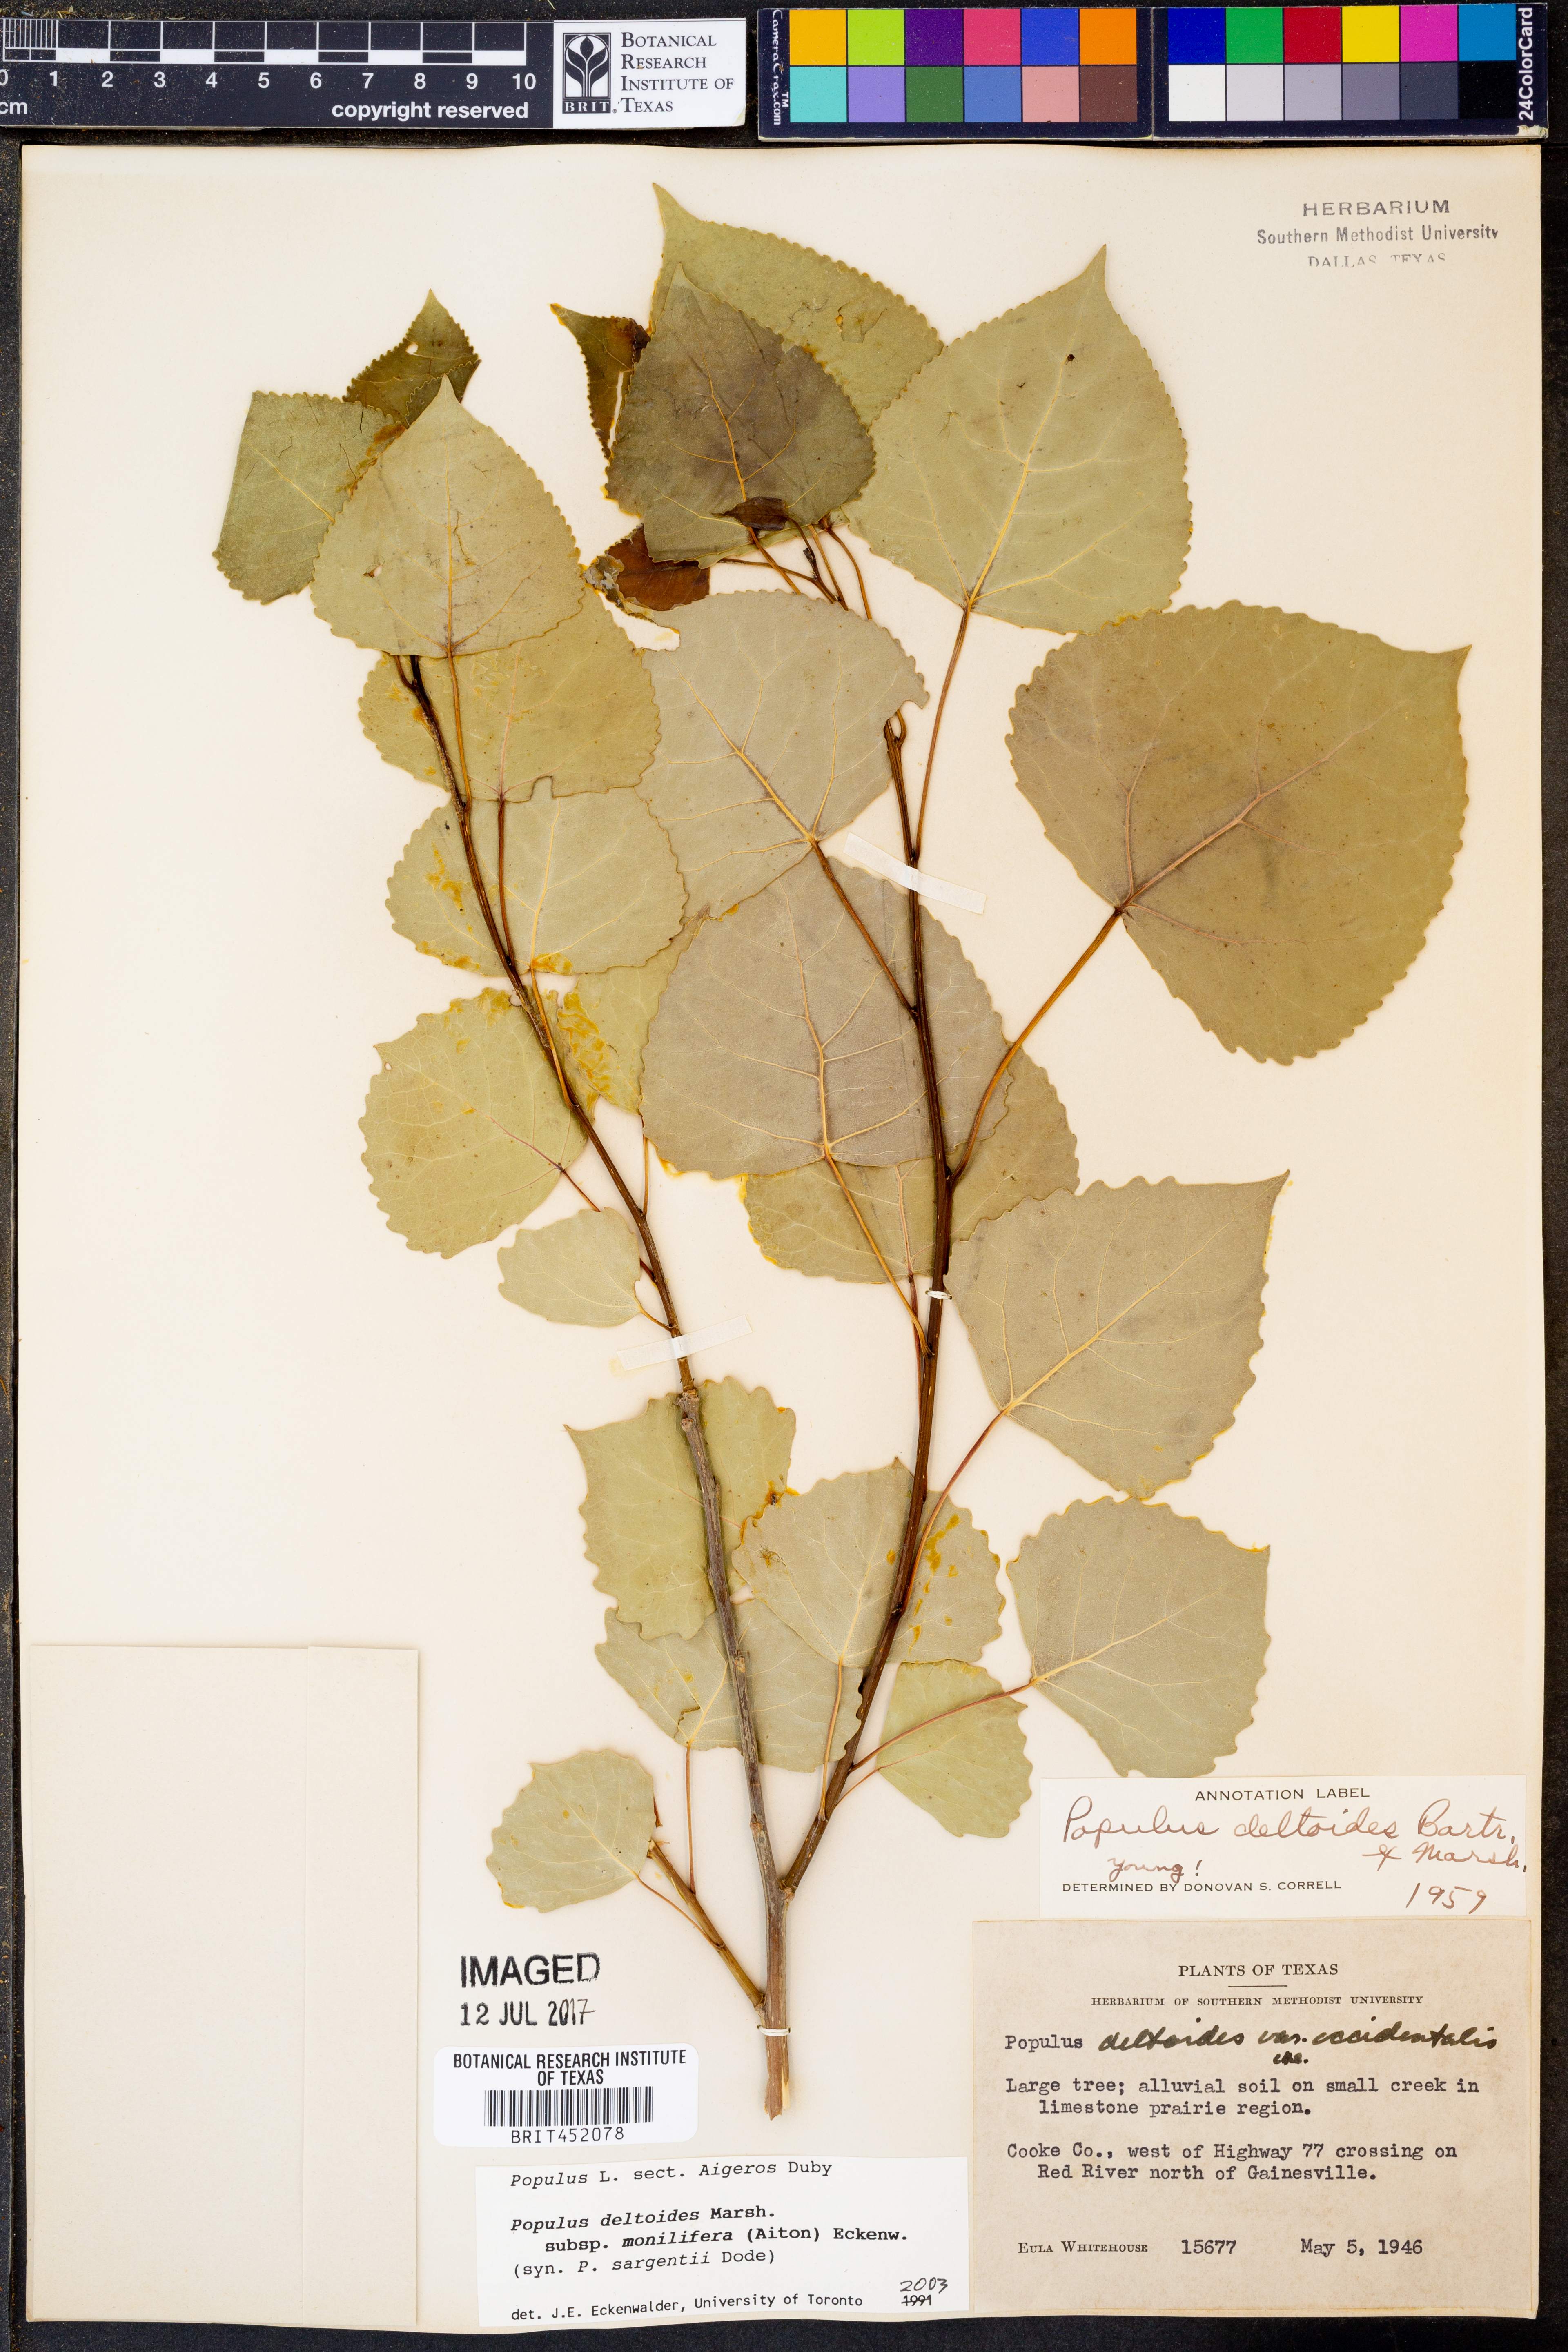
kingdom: Plantae
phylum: Tracheophyta
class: Magnoliopsida
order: Malpighiales
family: Salicaceae
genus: Populus
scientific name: Populus deltoides
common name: Eastern cottonwood
